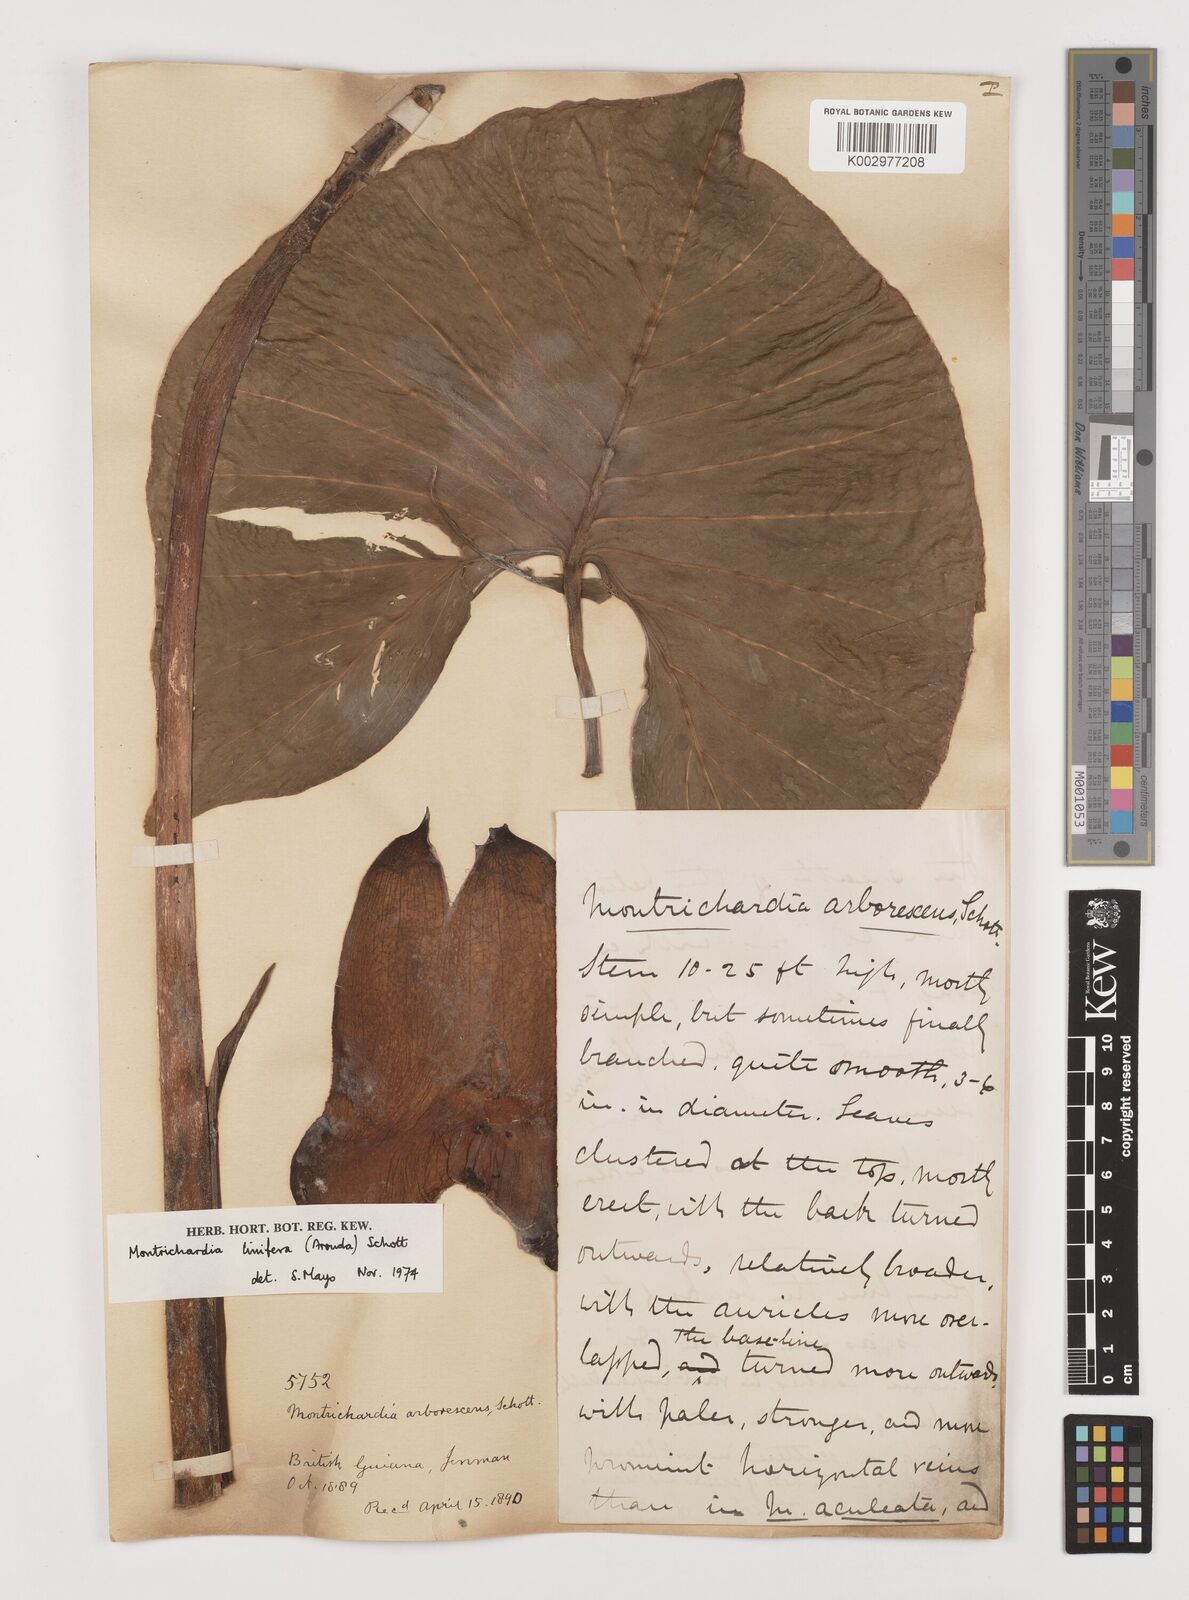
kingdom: Plantae
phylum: Tracheophyta
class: Liliopsida
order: Alismatales
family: Araceae
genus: Montrichardia
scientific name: Montrichardia linifera
